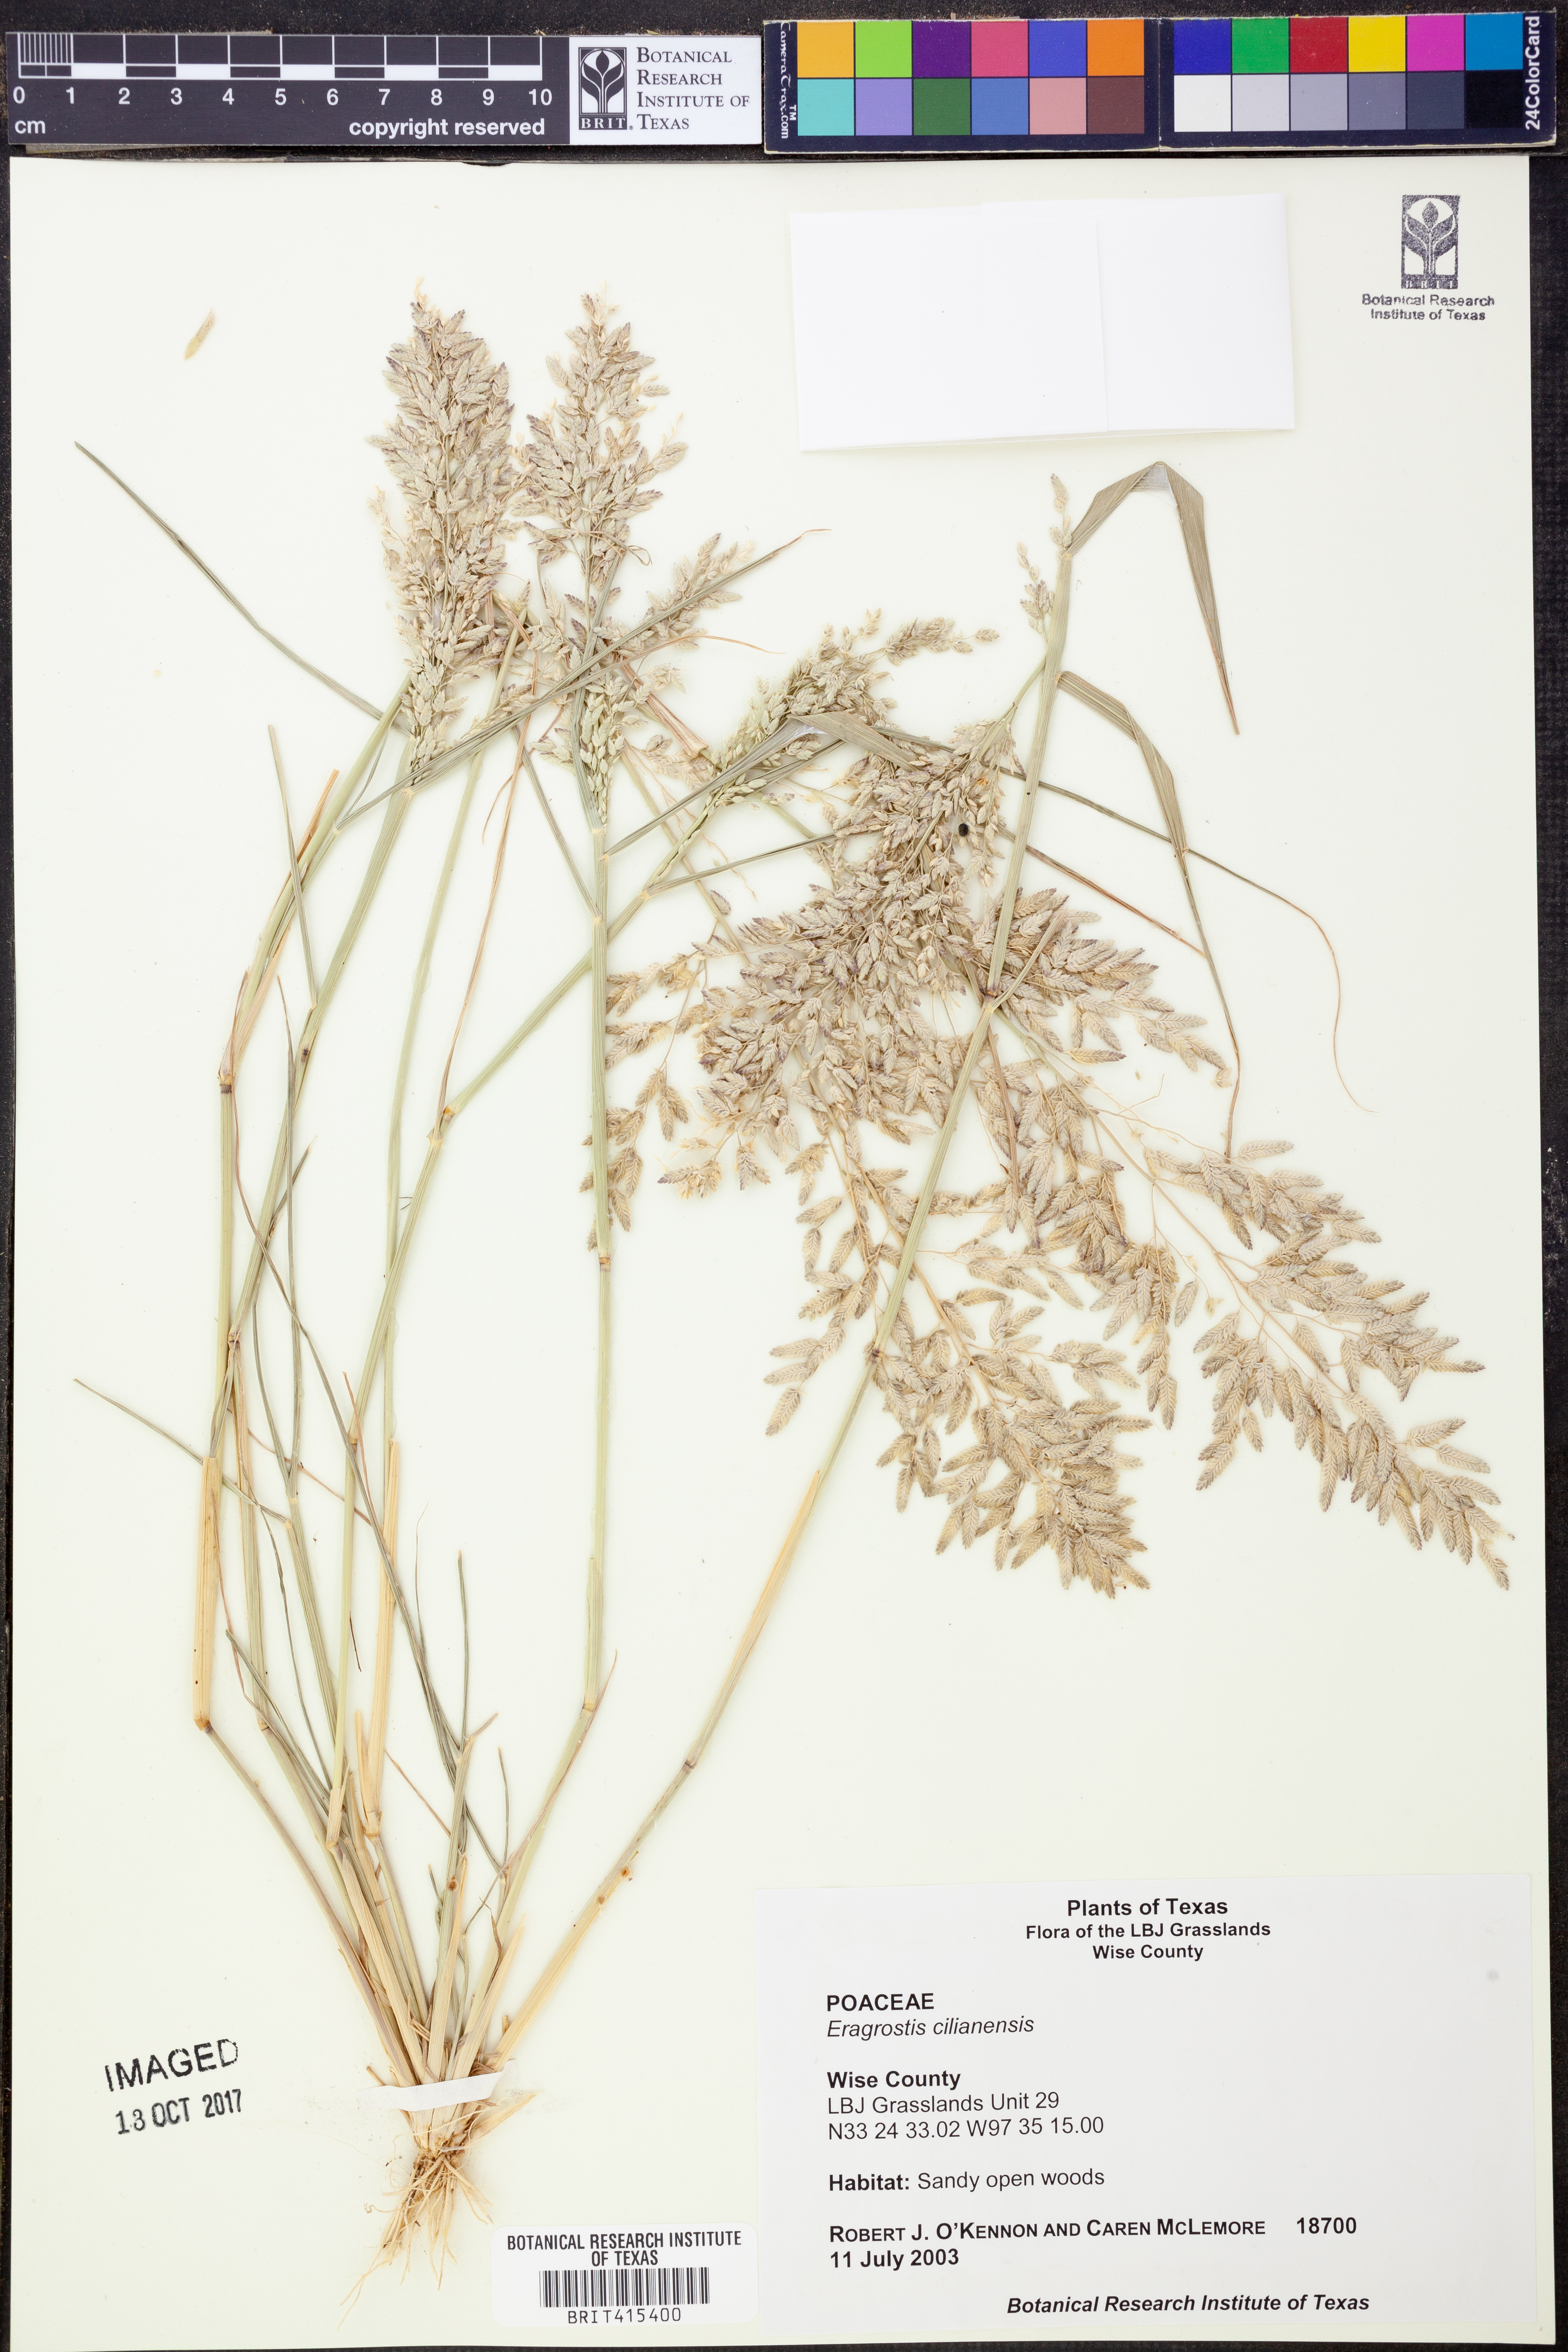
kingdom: Plantae
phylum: Tracheophyta
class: Liliopsida
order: Poales
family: Poaceae
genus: Eragrostis
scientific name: Eragrostis cilianensis
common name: Stinkgrass
